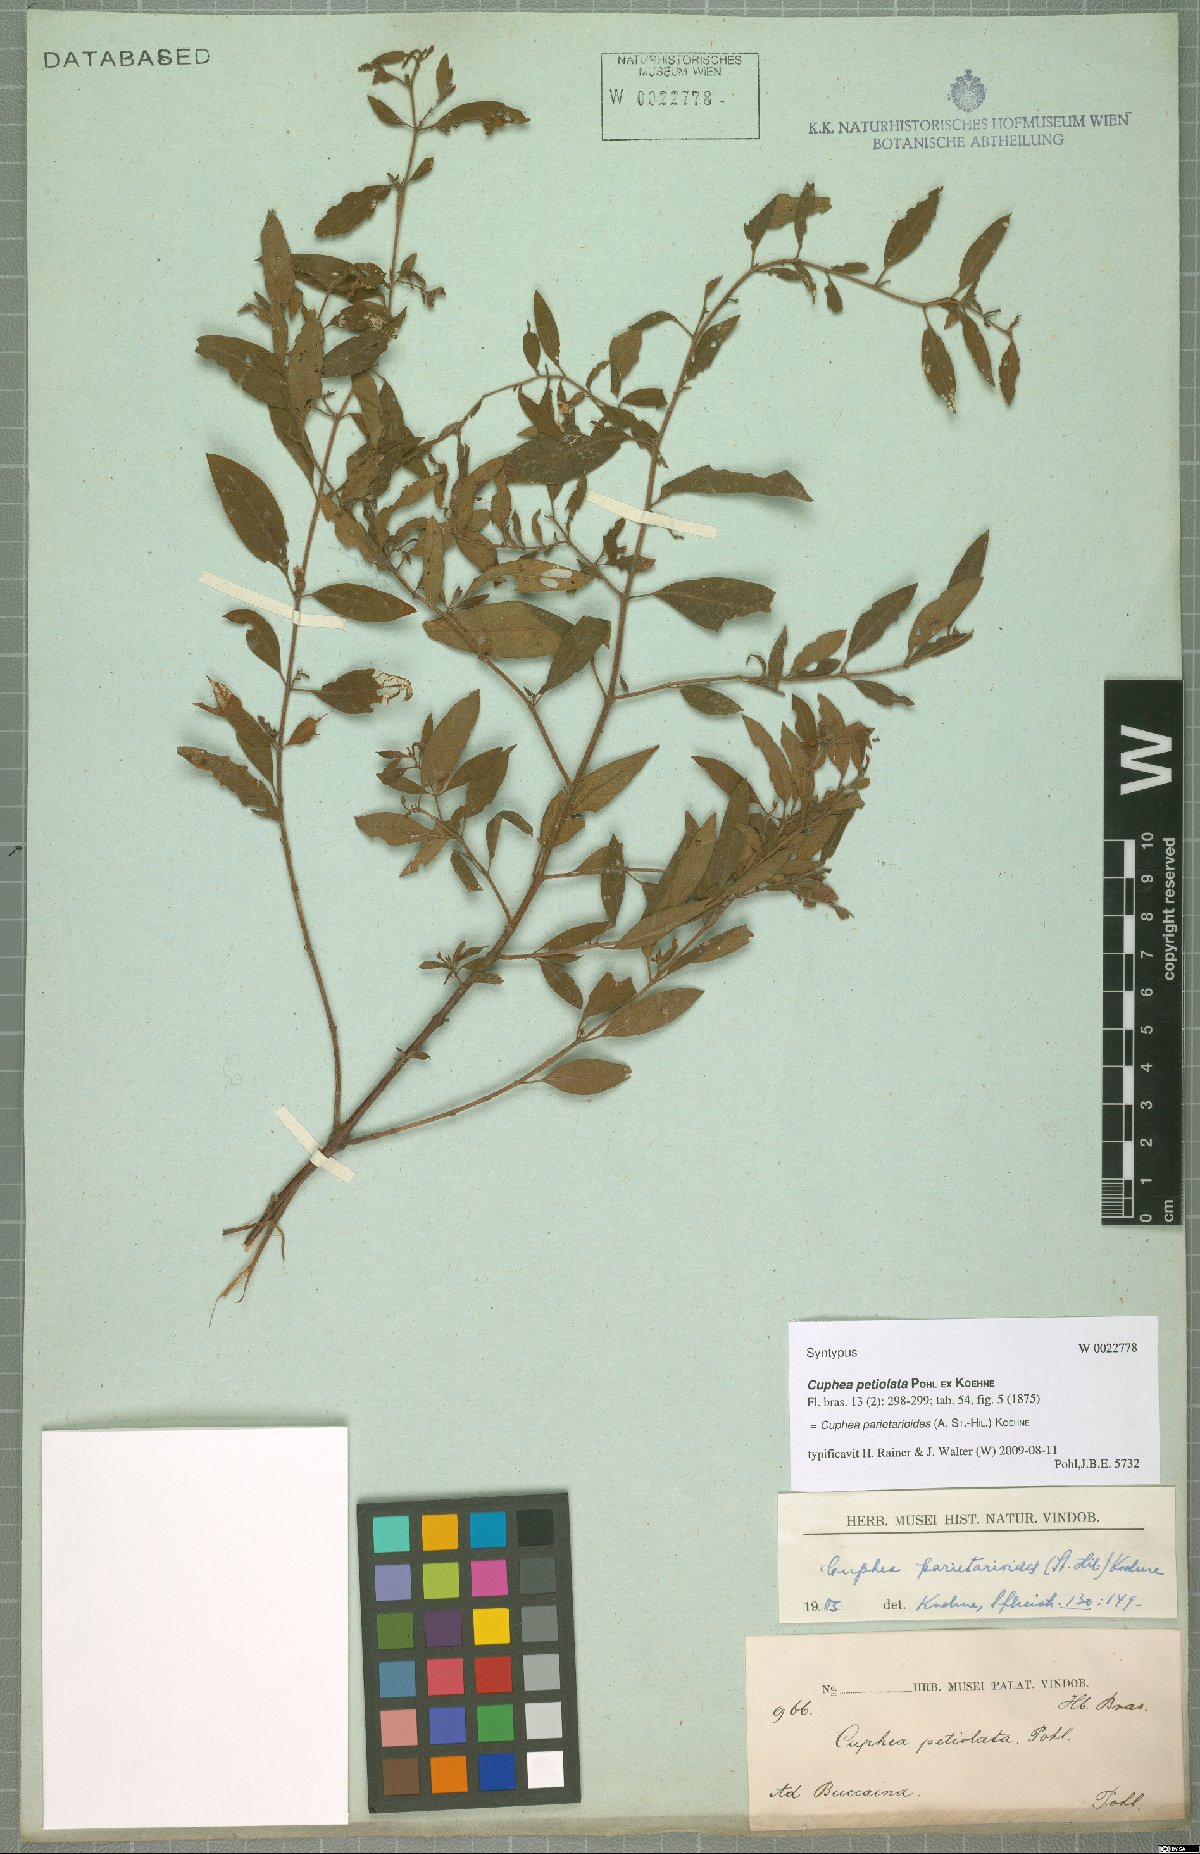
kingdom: Plantae
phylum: Tracheophyta
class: Magnoliopsida
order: Myrtales
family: Lythraceae
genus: Cuphea
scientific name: Cuphea
